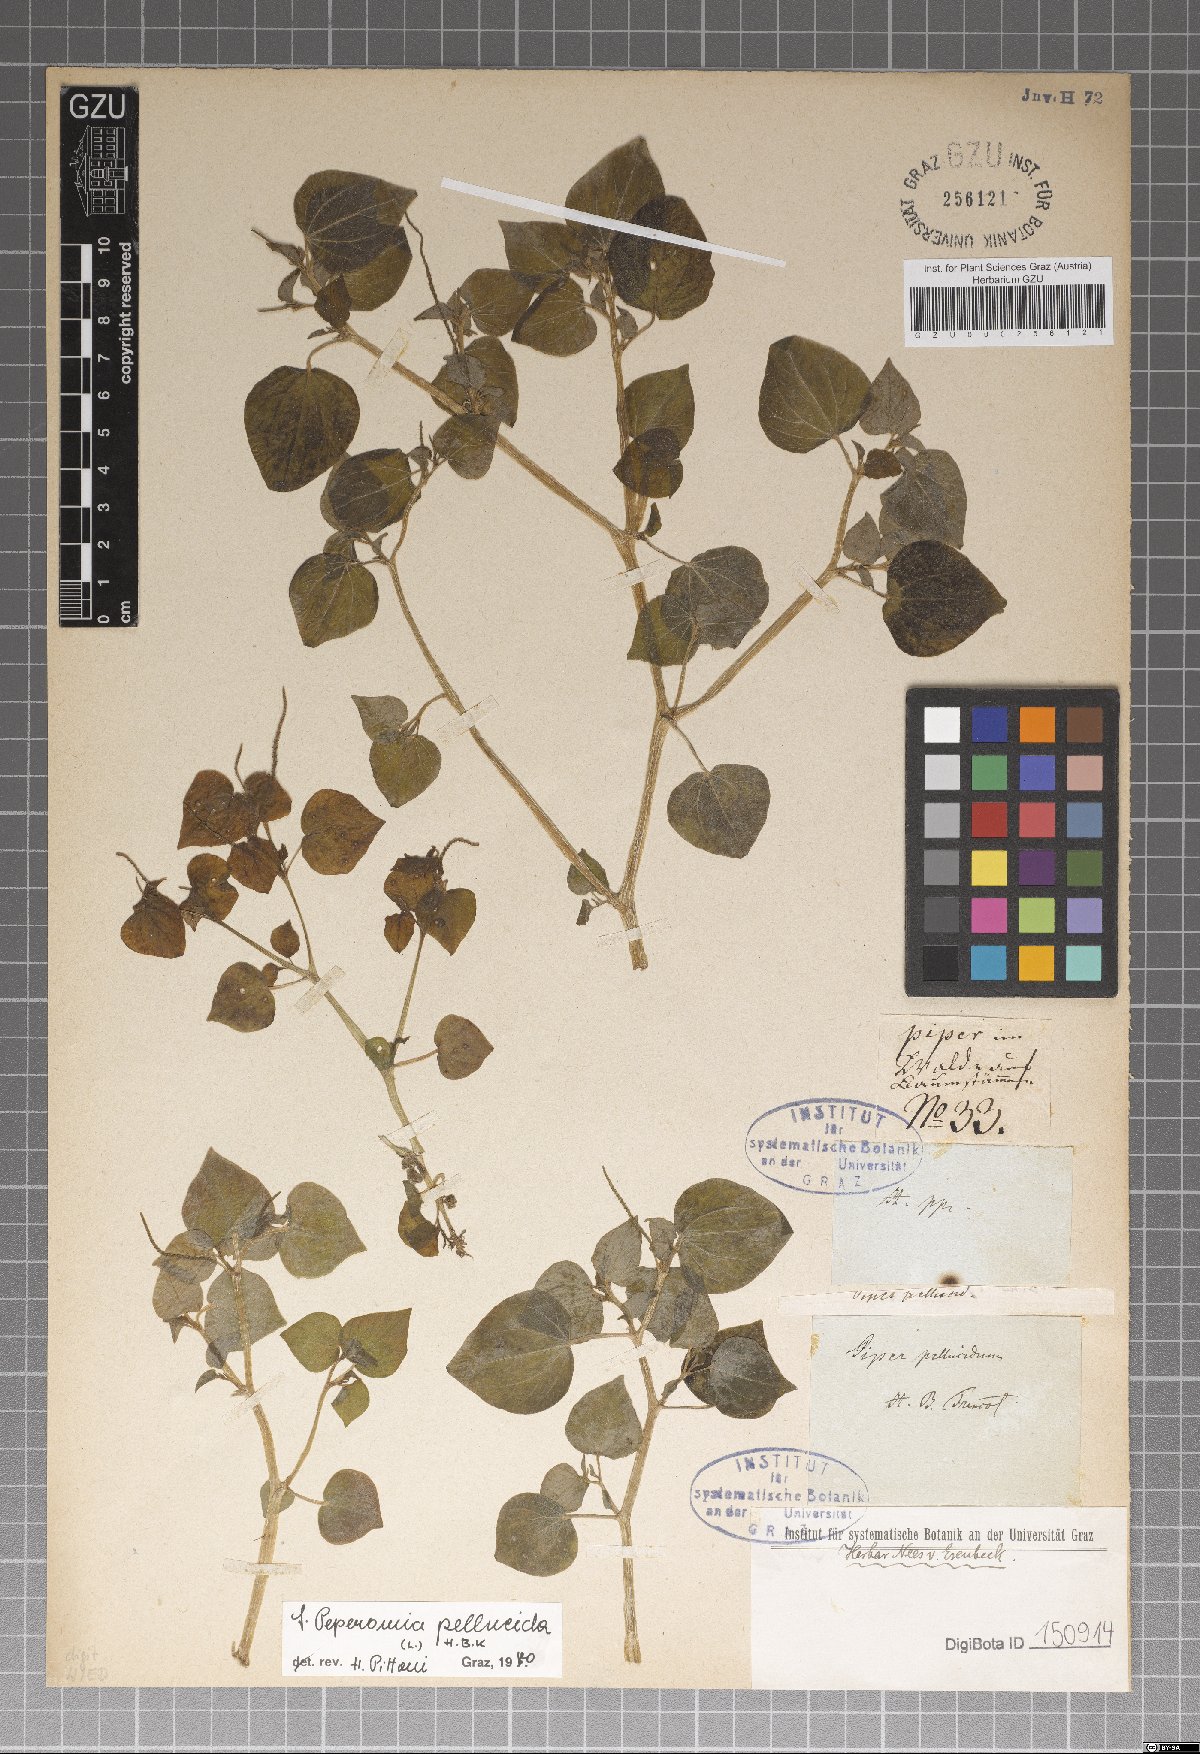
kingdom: Plantae
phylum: Tracheophyta
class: Magnoliopsida
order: Piperales
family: Piperaceae
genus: Peperomia
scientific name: Peperomia pellucida
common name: Man to man
